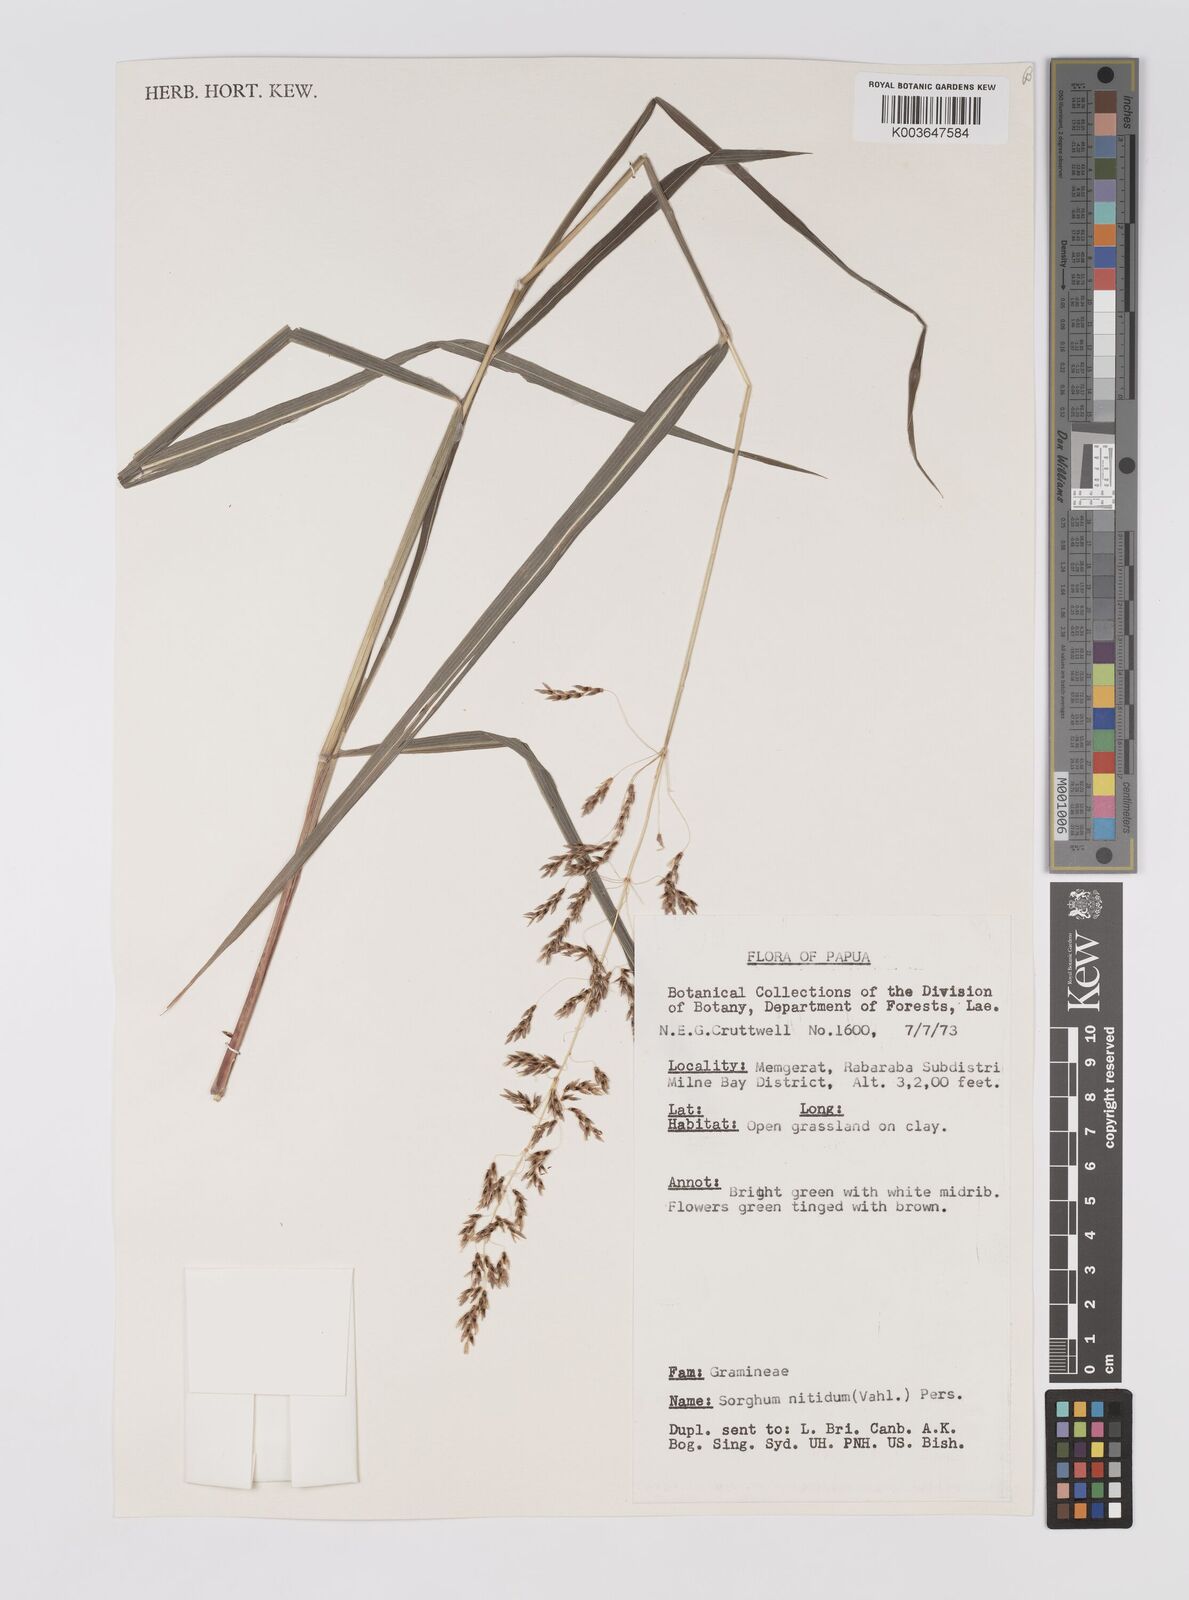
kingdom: Plantae
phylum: Tracheophyta
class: Liliopsida
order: Poales
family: Poaceae
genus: Sorghum
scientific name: Sorghum nitidum
